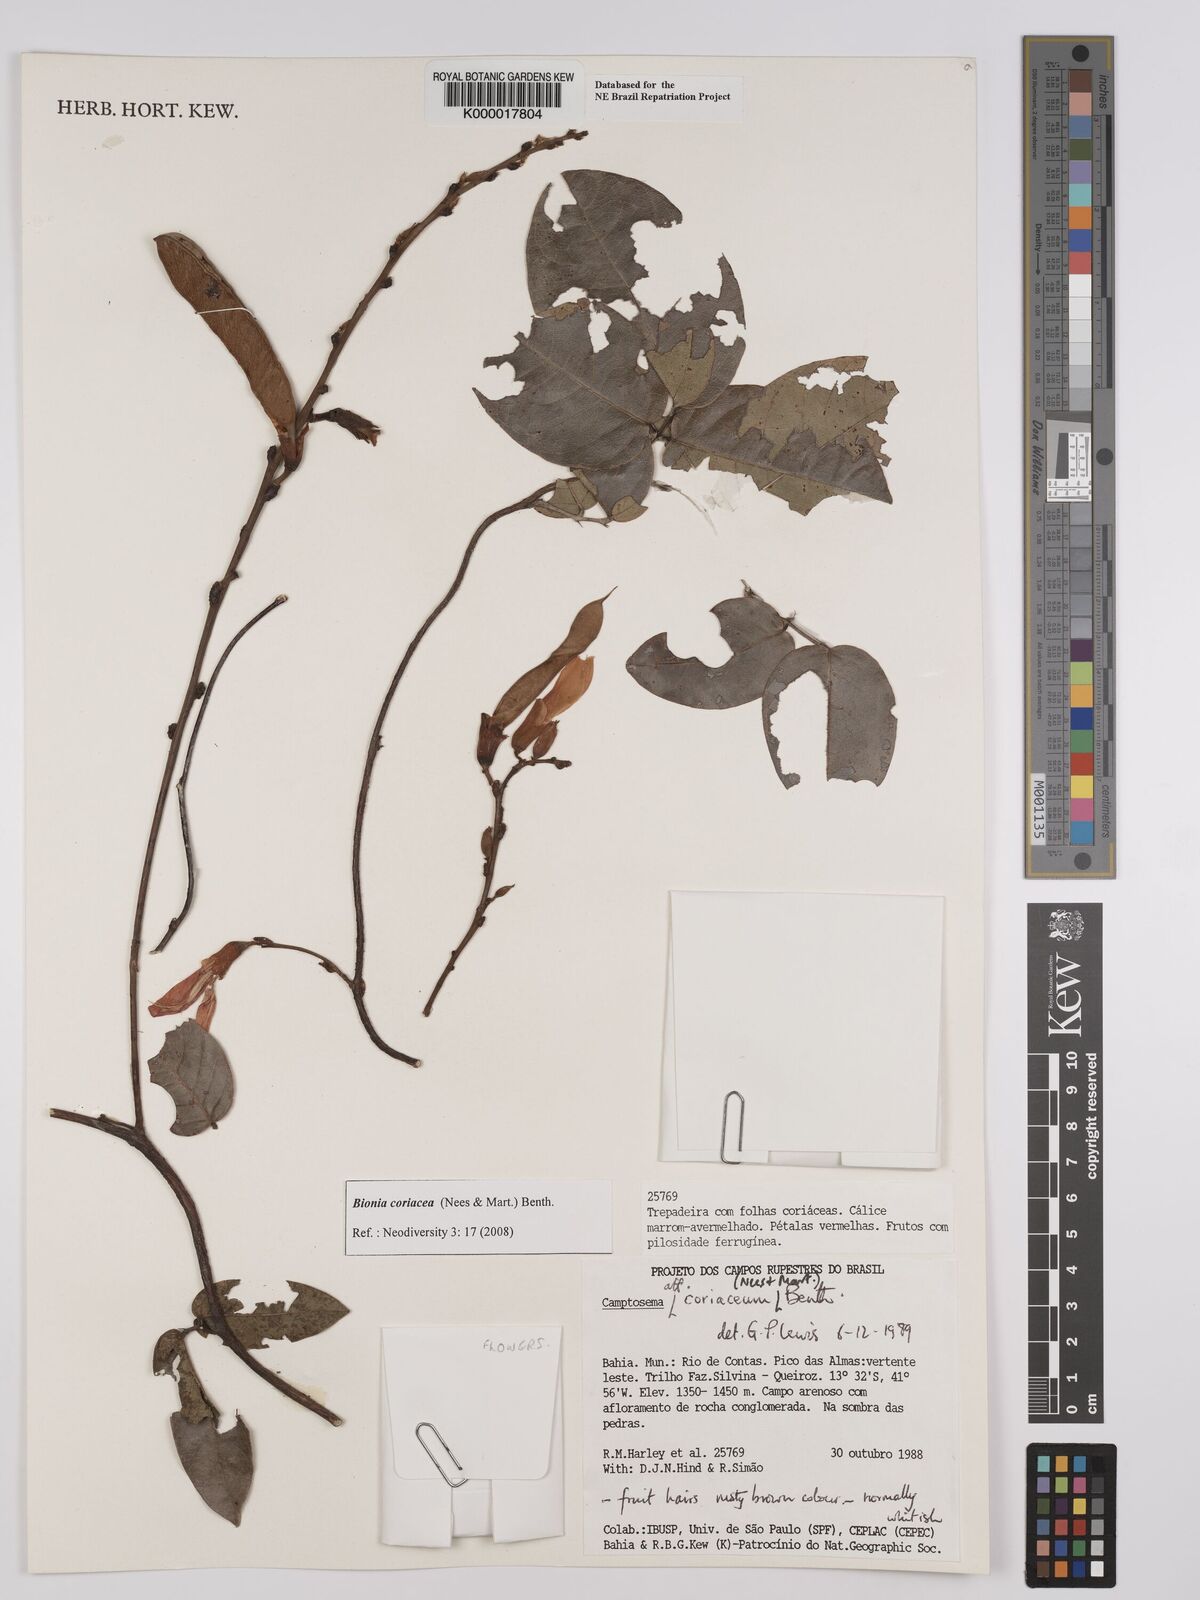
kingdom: Plantae
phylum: Tracheophyta
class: Magnoliopsida
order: Fabales
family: Fabaceae
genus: Camptosema
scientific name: Camptosema coriaceum
